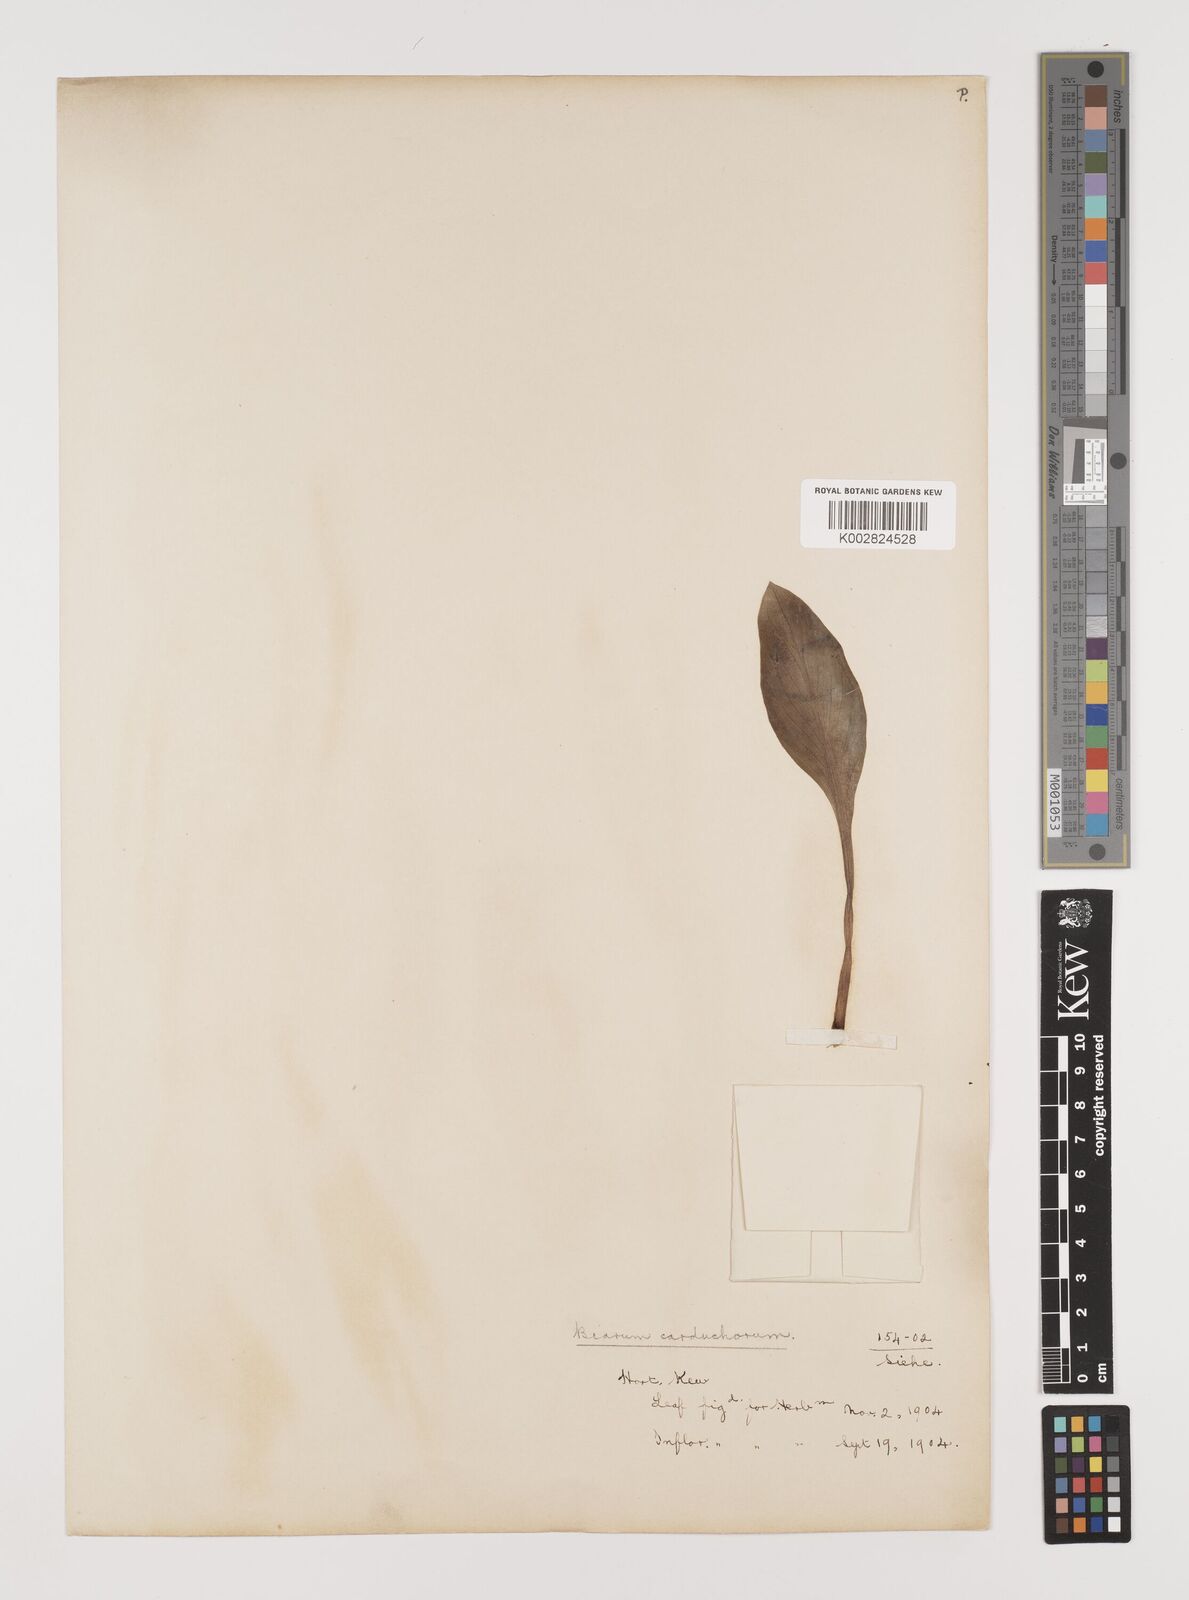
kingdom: Plantae
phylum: Tracheophyta
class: Liliopsida
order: Alismatales
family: Araceae
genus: Biarum
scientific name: Biarum carduchorum
